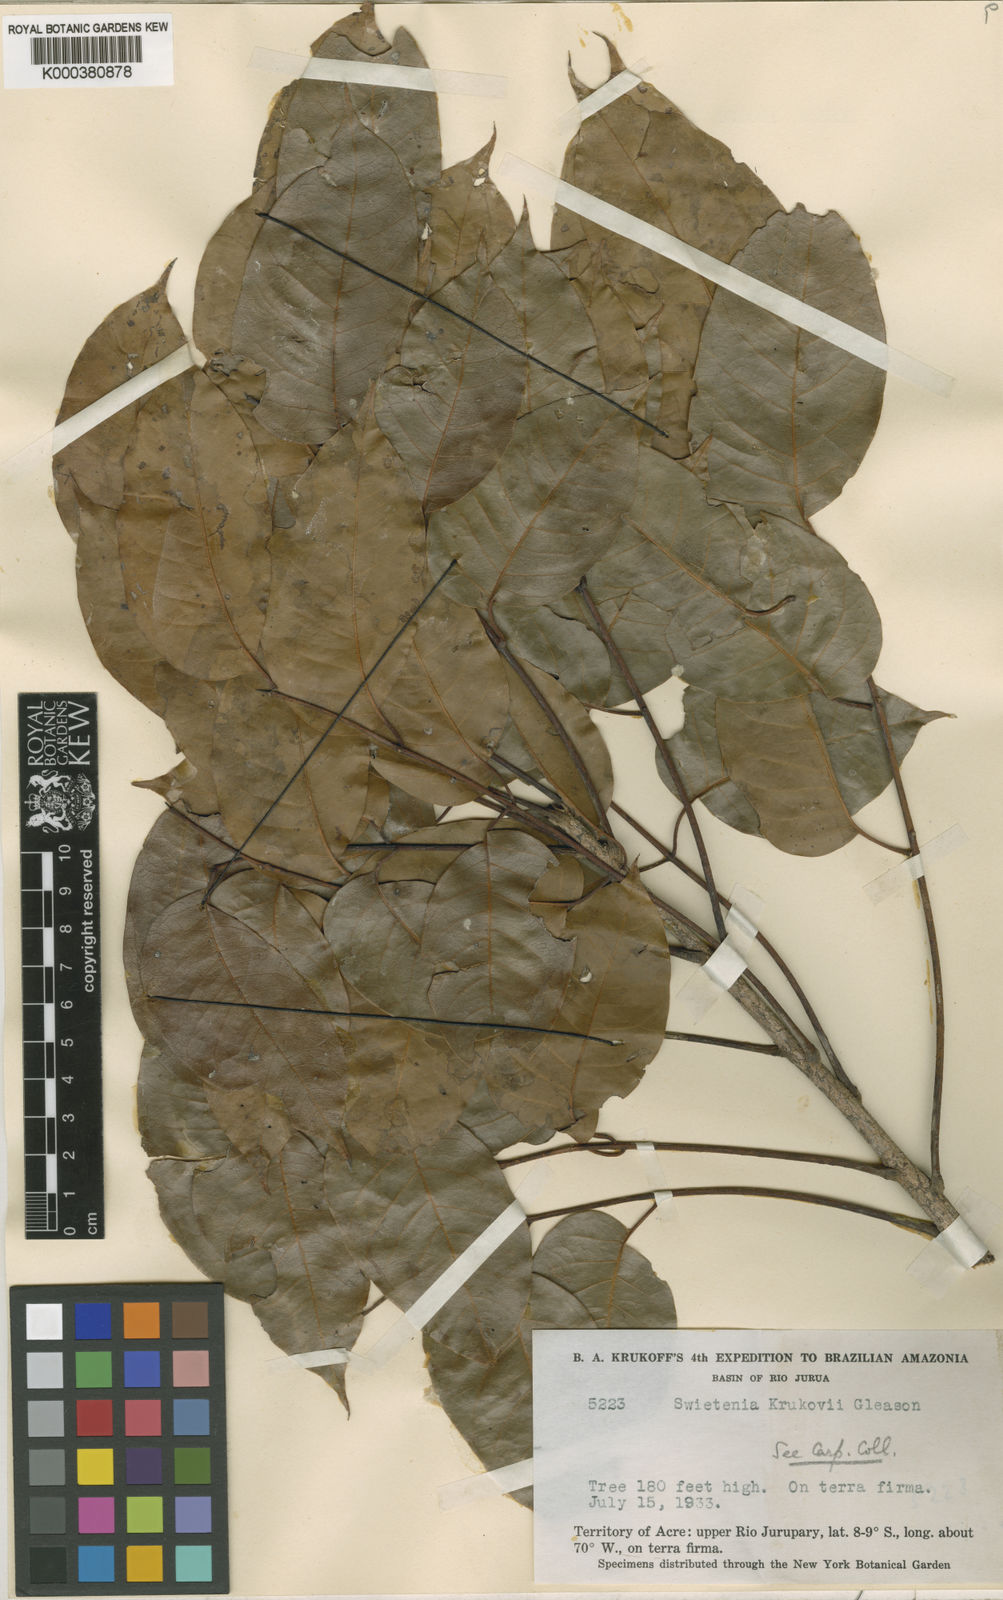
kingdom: Plantae
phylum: Tracheophyta
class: Magnoliopsida
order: Sapindales
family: Meliaceae
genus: Swietenia
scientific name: Swietenia macrophylla
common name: Honduras mahogany
